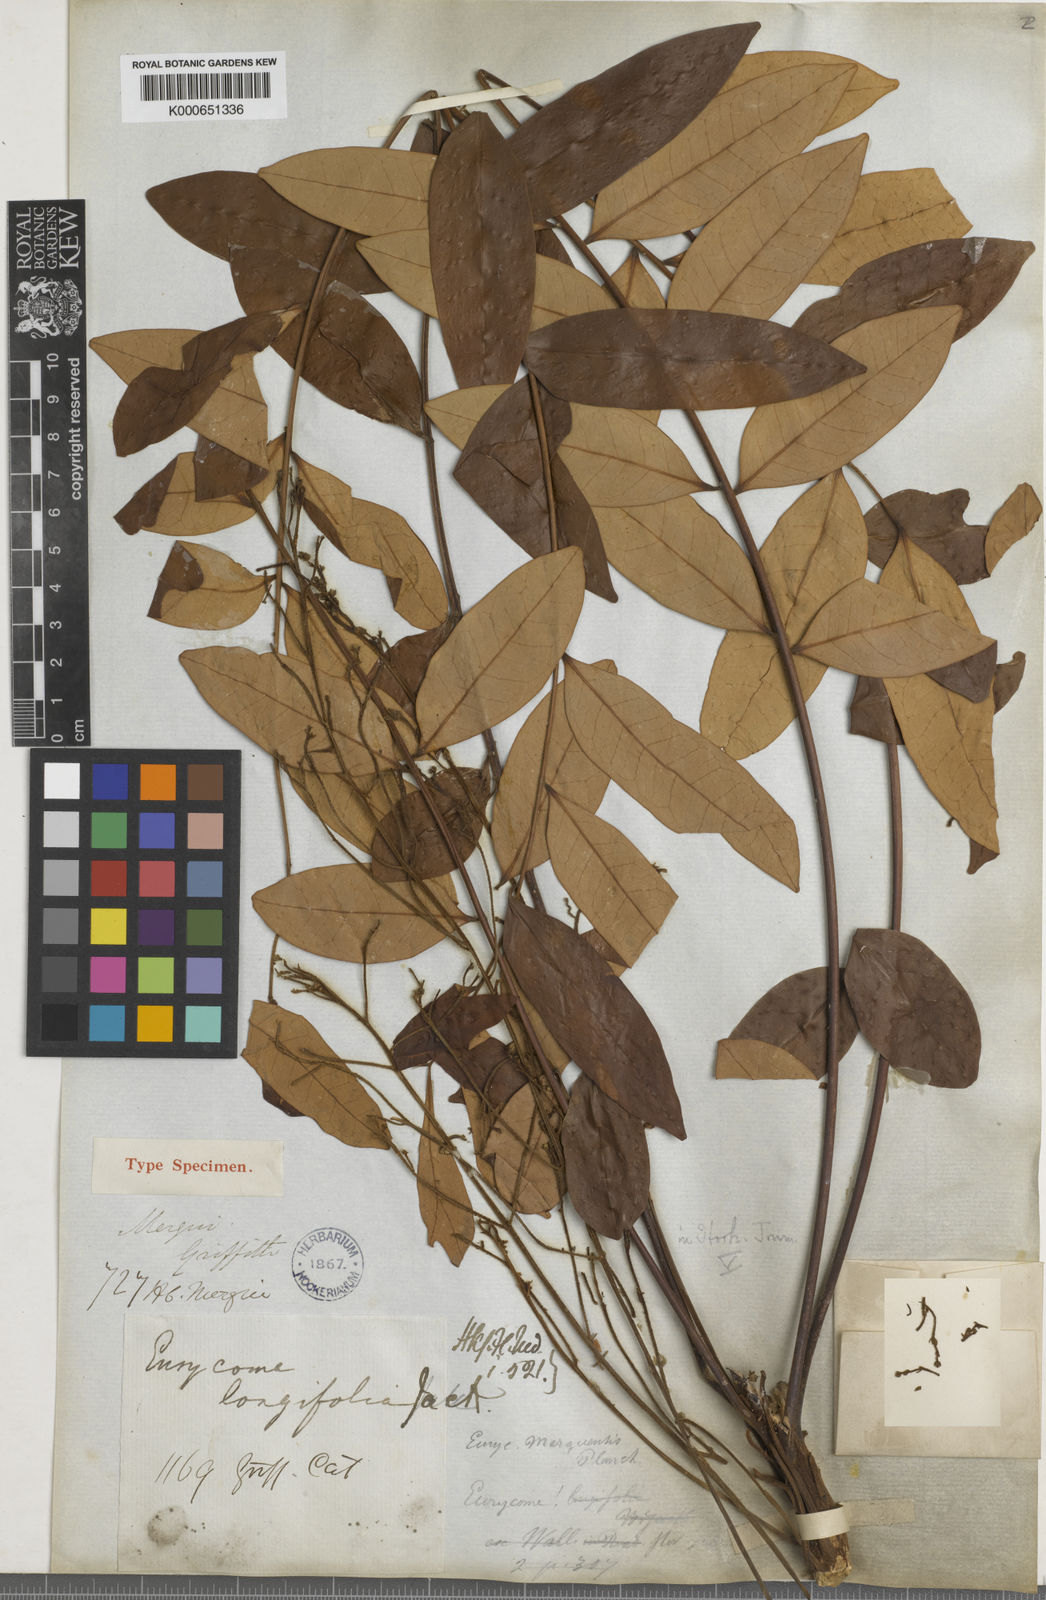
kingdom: Plantae
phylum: Tracheophyta
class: Magnoliopsida
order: Sapindales
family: Simaroubaceae
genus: Eurycoma
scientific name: Eurycoma longifolia
